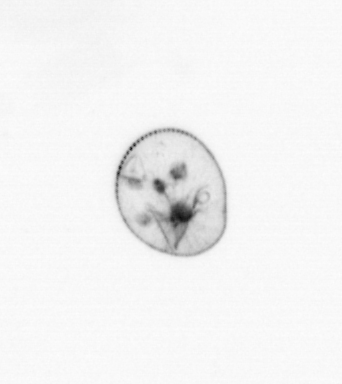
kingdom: Chromista
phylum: Myzozoa
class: Dinophyceae
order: Noctilucales
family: Noctilucaceae
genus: Noctiluca
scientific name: Noctiluca scintillans
